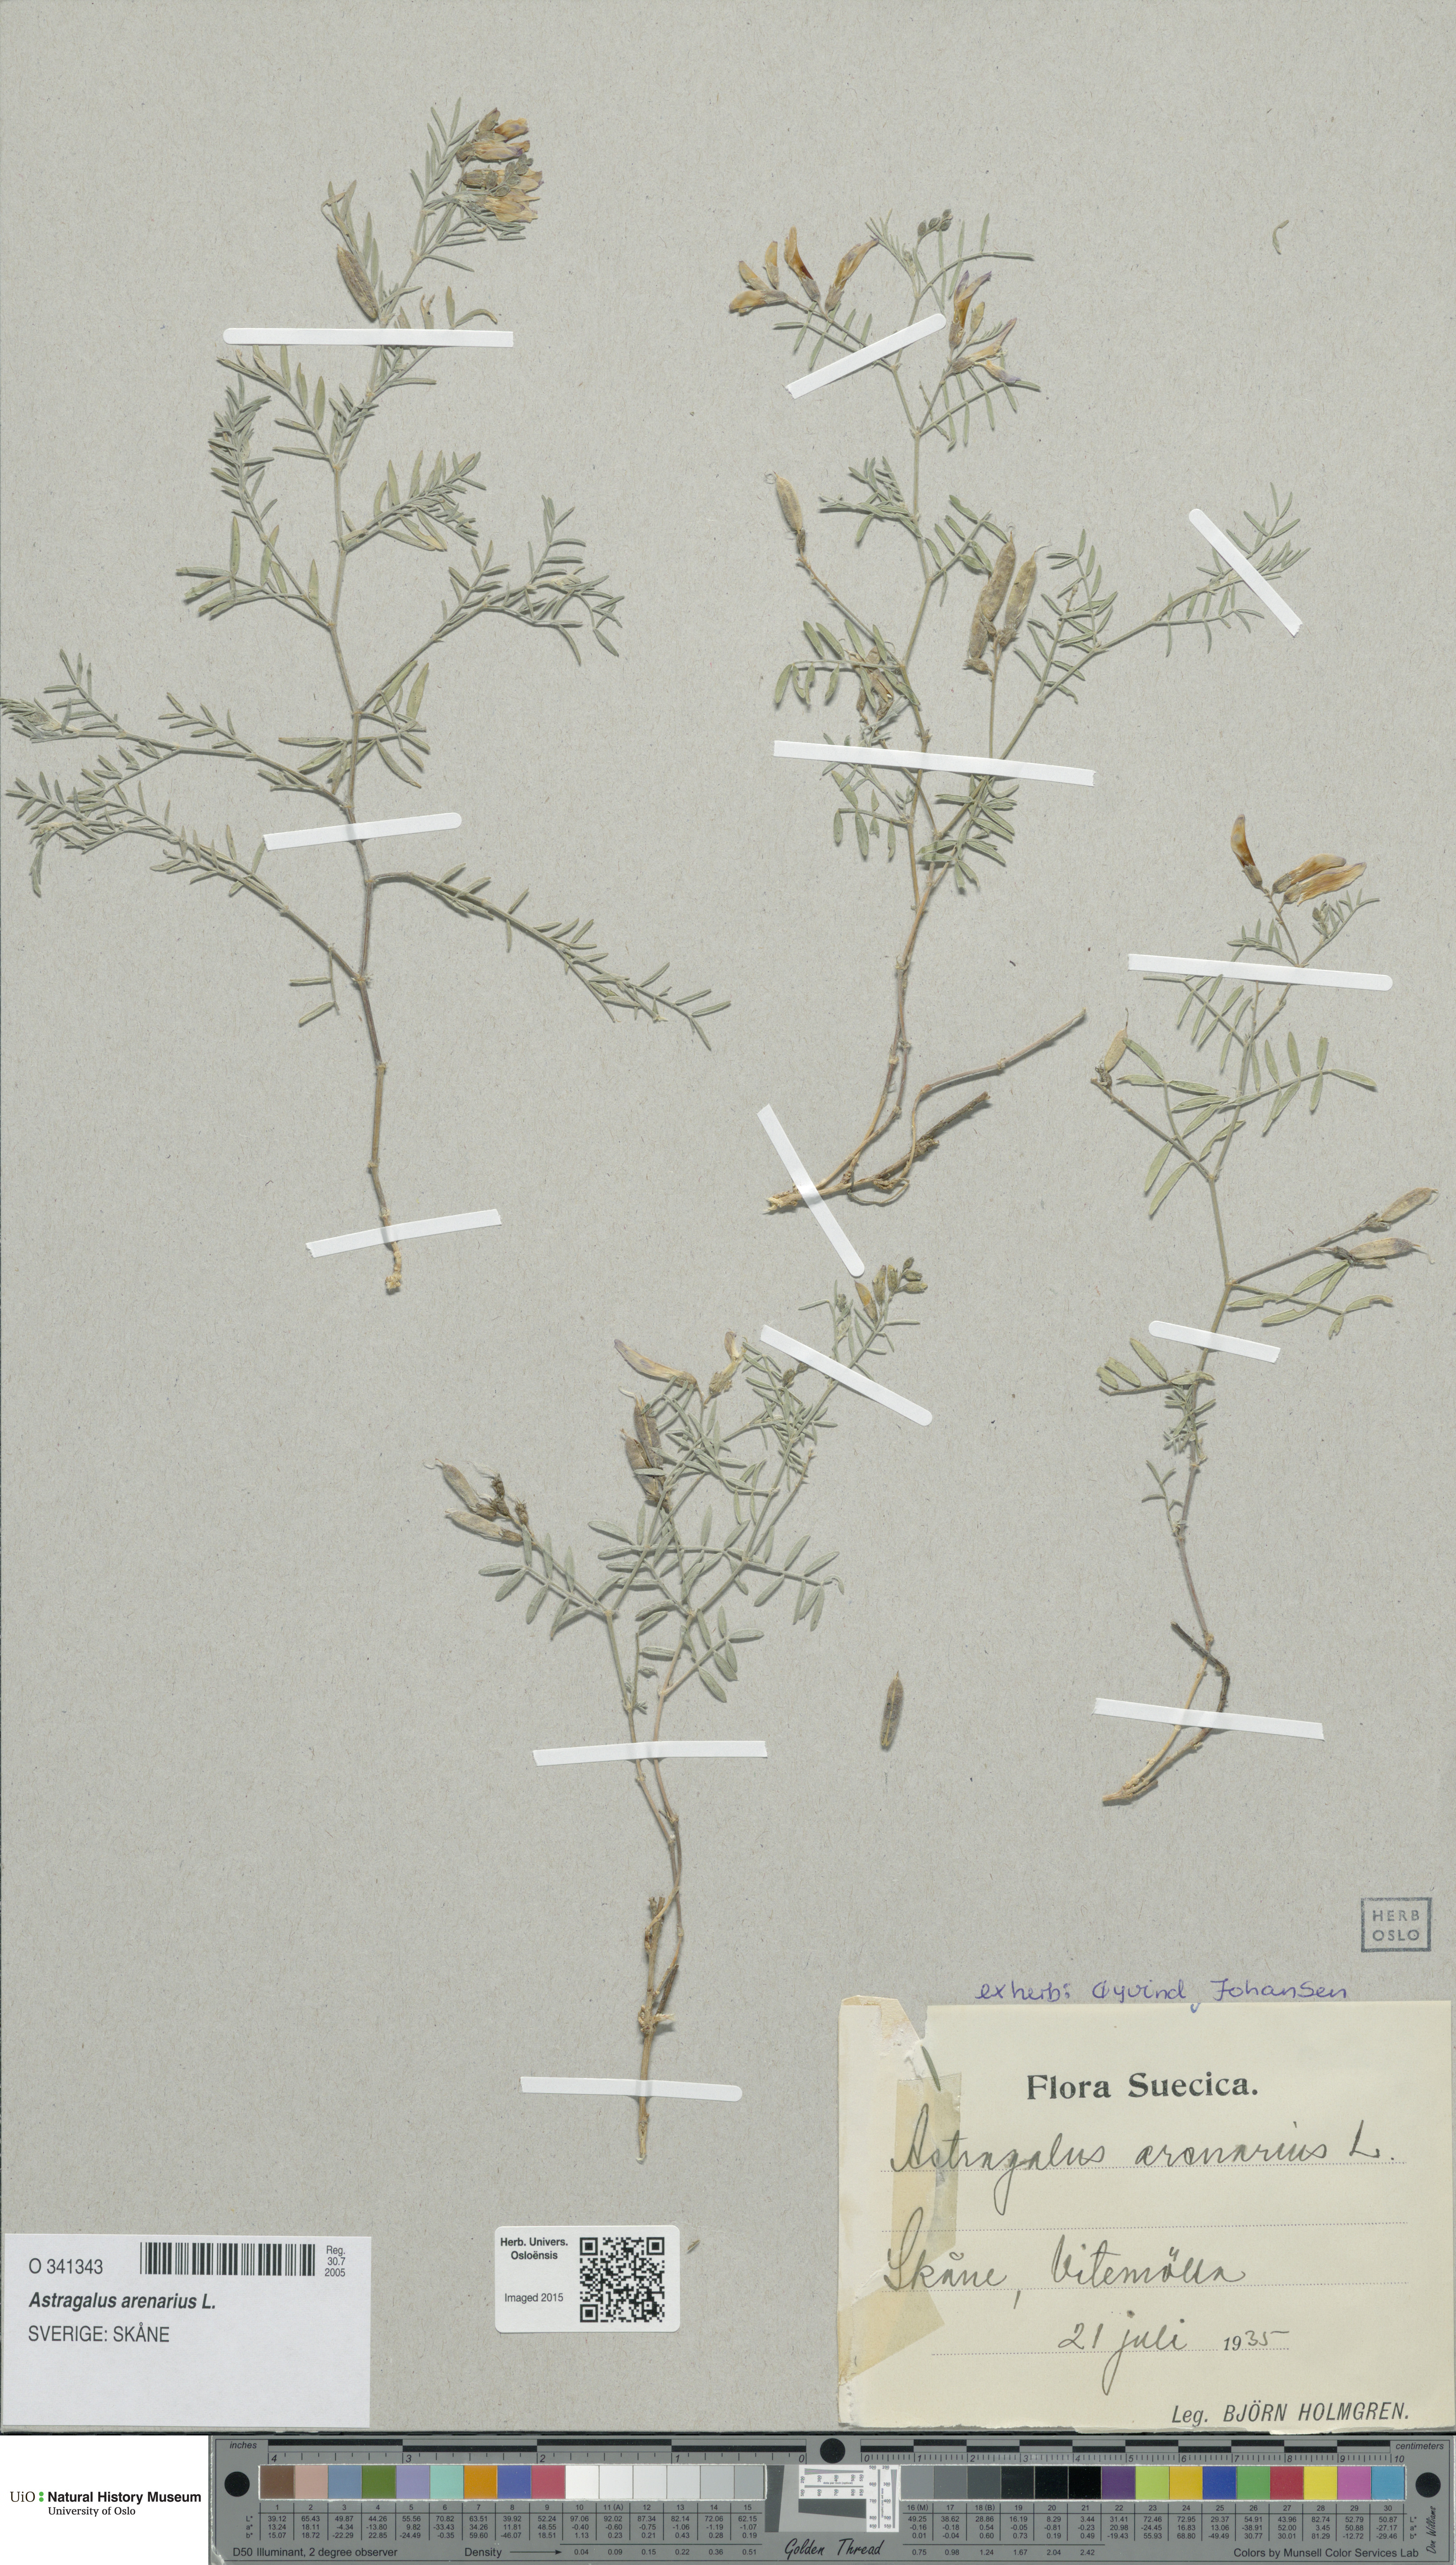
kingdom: Plantae
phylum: Tracheophyta
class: Magnoliopsida
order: Fabales
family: Fabaceae
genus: Astragalus
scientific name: Astragalus arenarius
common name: Arenarious milk-vetch
